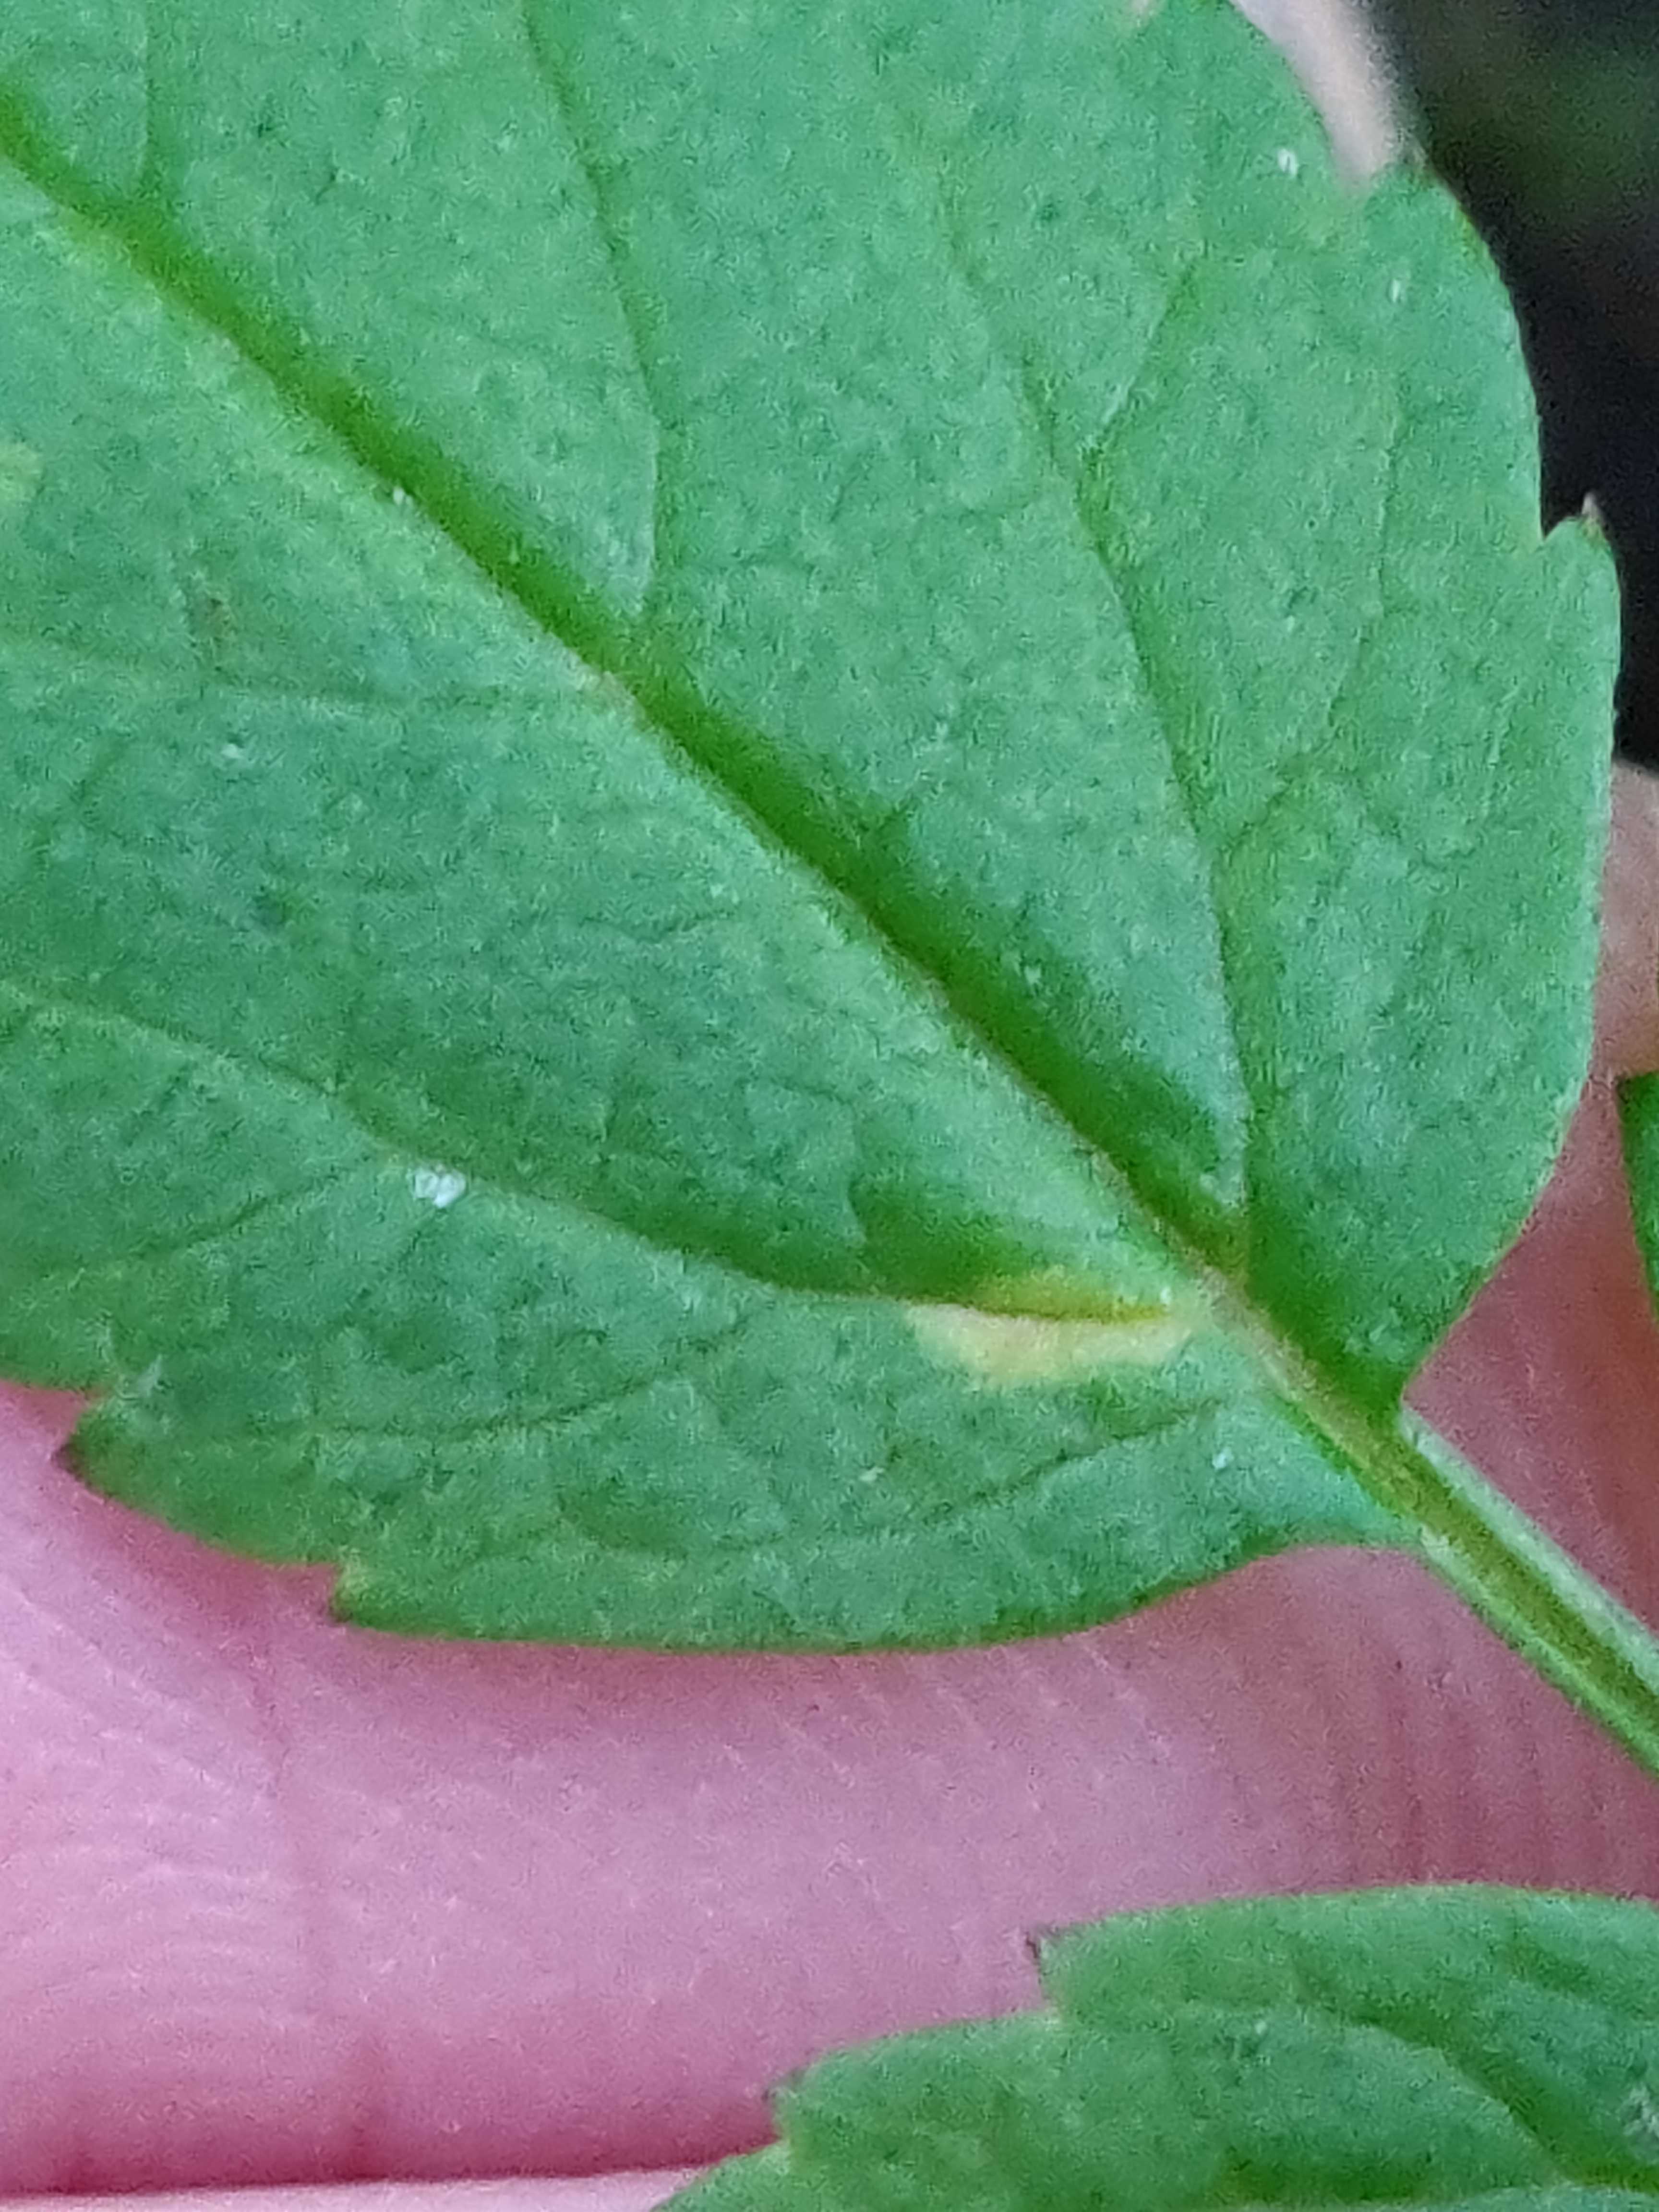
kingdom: Fungi
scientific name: Fungi
